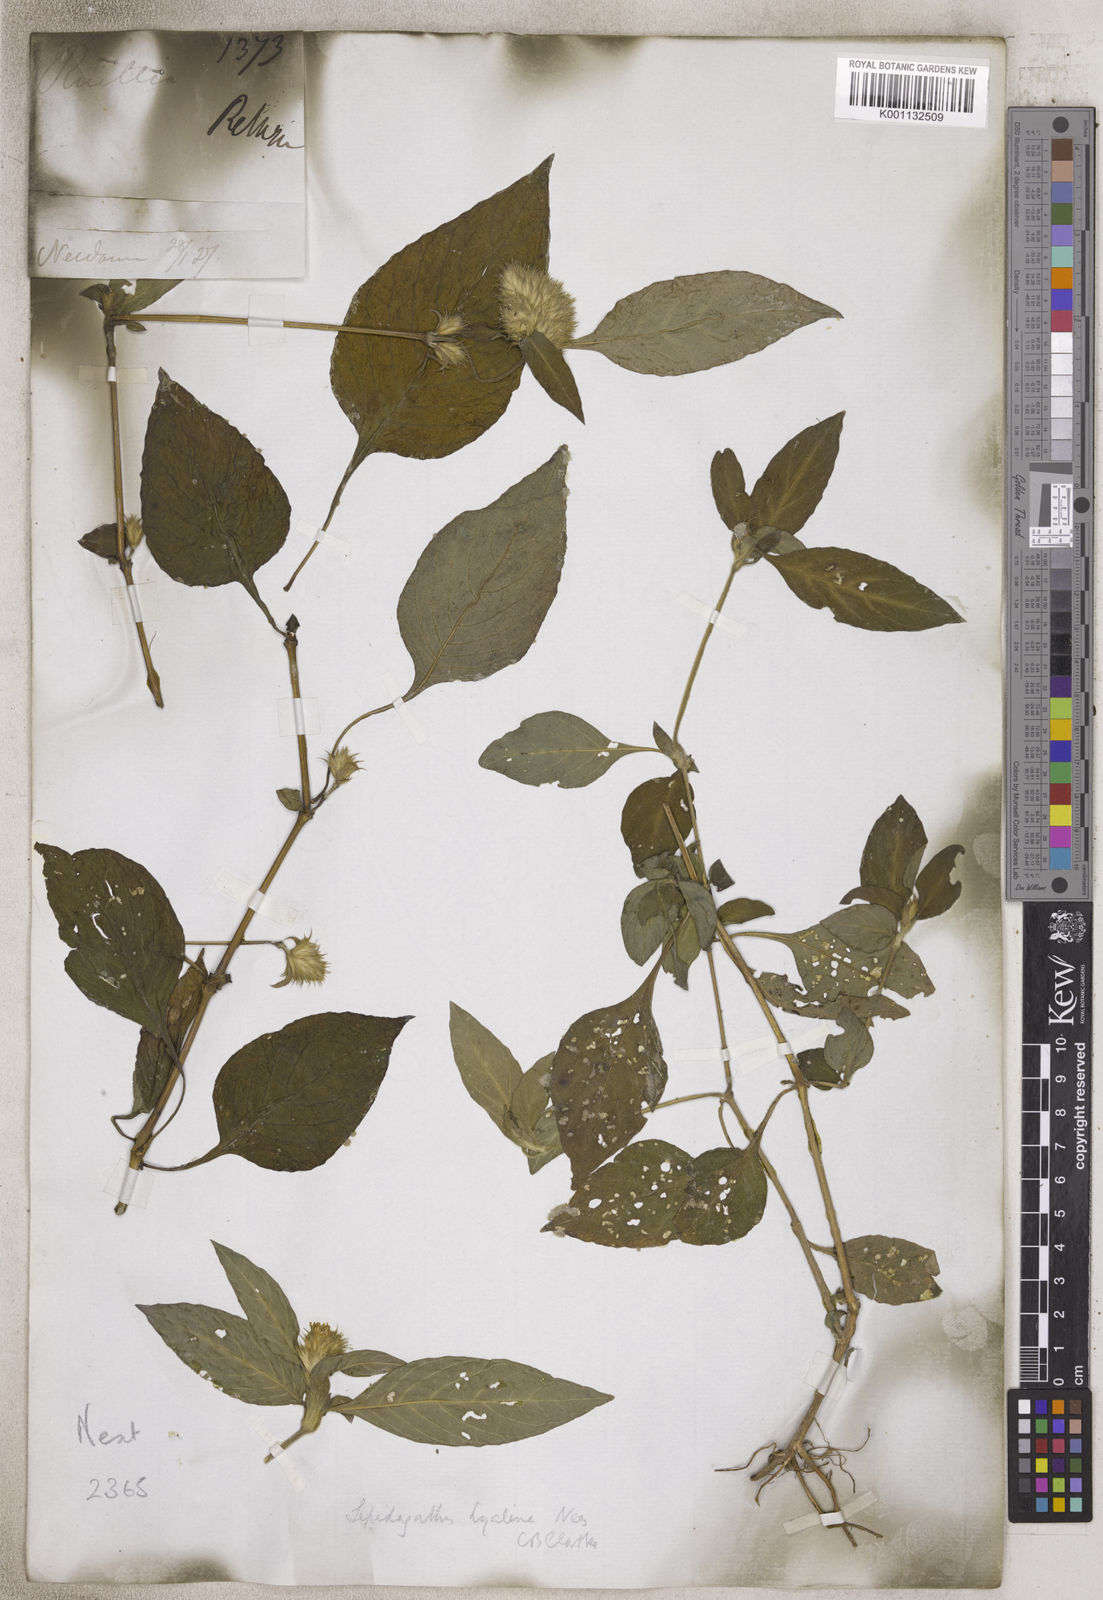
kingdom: Plantae
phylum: Tracheophyta
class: Magnoliopsida
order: Lamiales
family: Acanthaceae
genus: Lepidagathis
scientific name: Lepidagathis
